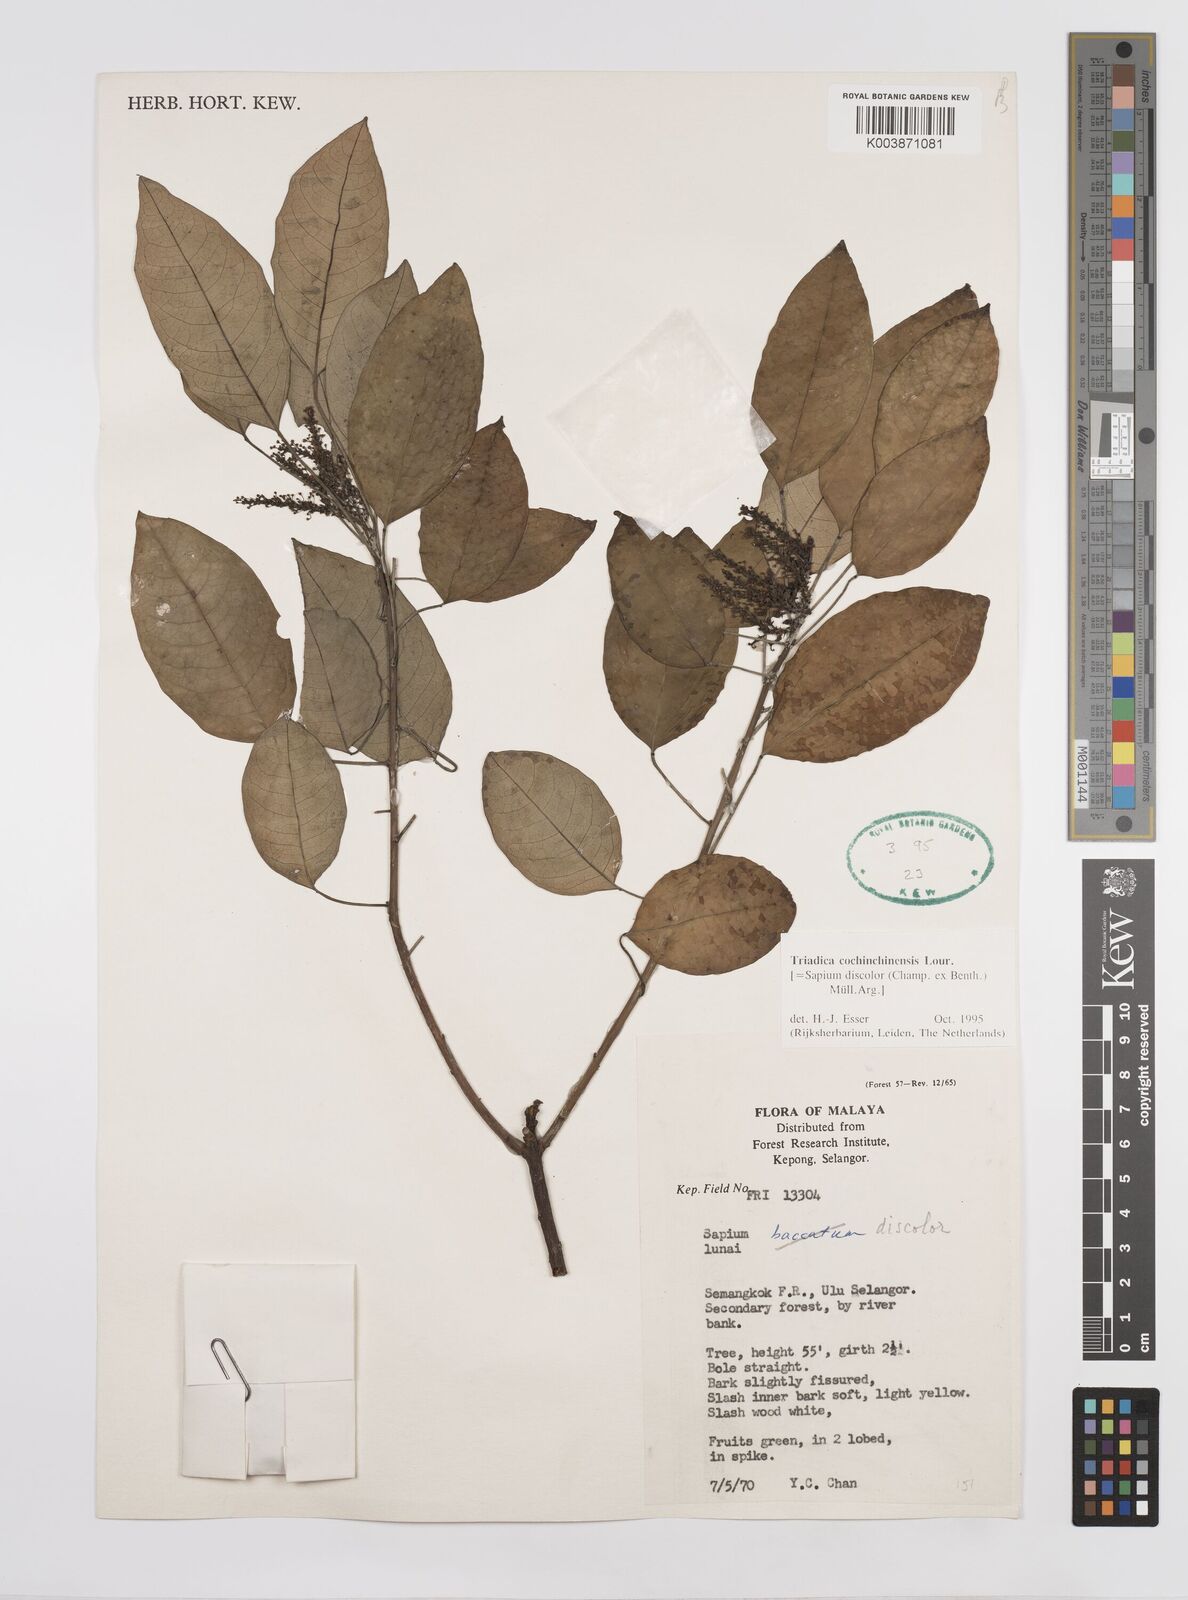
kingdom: Plantae
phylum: Tracheophyta
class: Magnoliopsida
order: Malpighiales
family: Euphorbiaceae
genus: Triadica
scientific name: Triadica cochinchinensis
